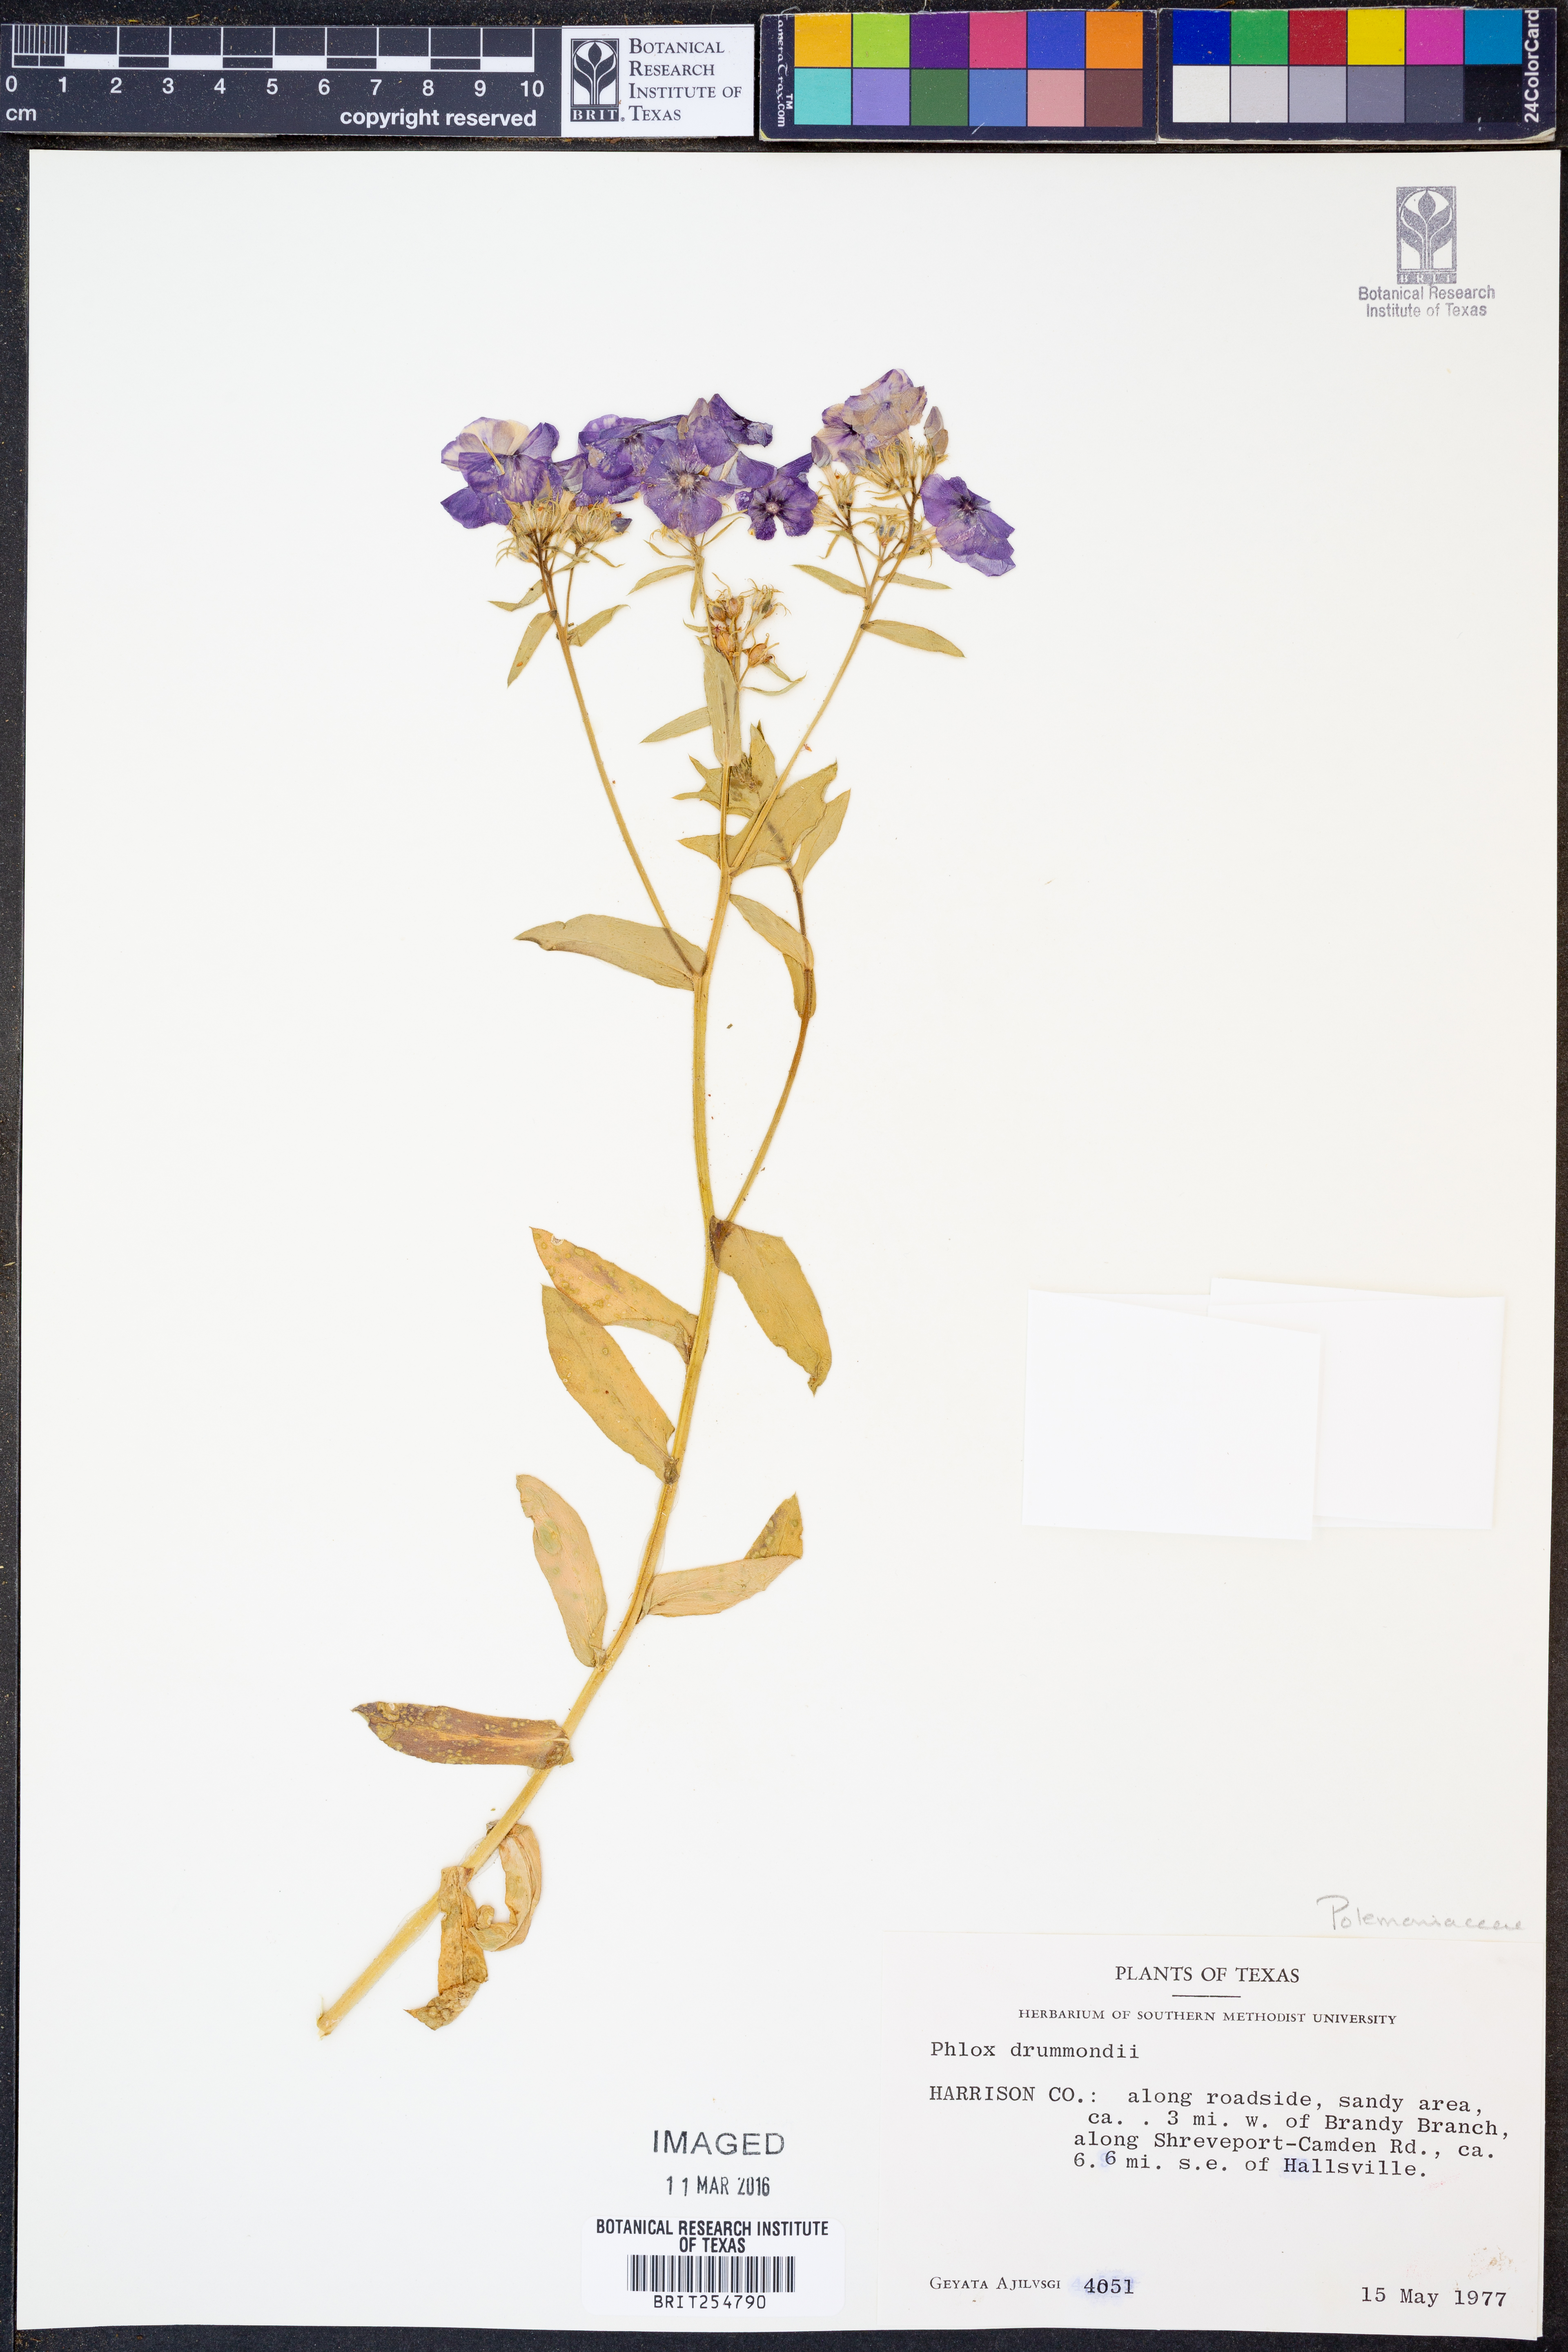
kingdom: Plantae
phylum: Tracheophyta
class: Magnoliopsida
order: Ericales
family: Polemoniaceae
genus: Phlox
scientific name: Phlox drummondii
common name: Drummond's phlox
